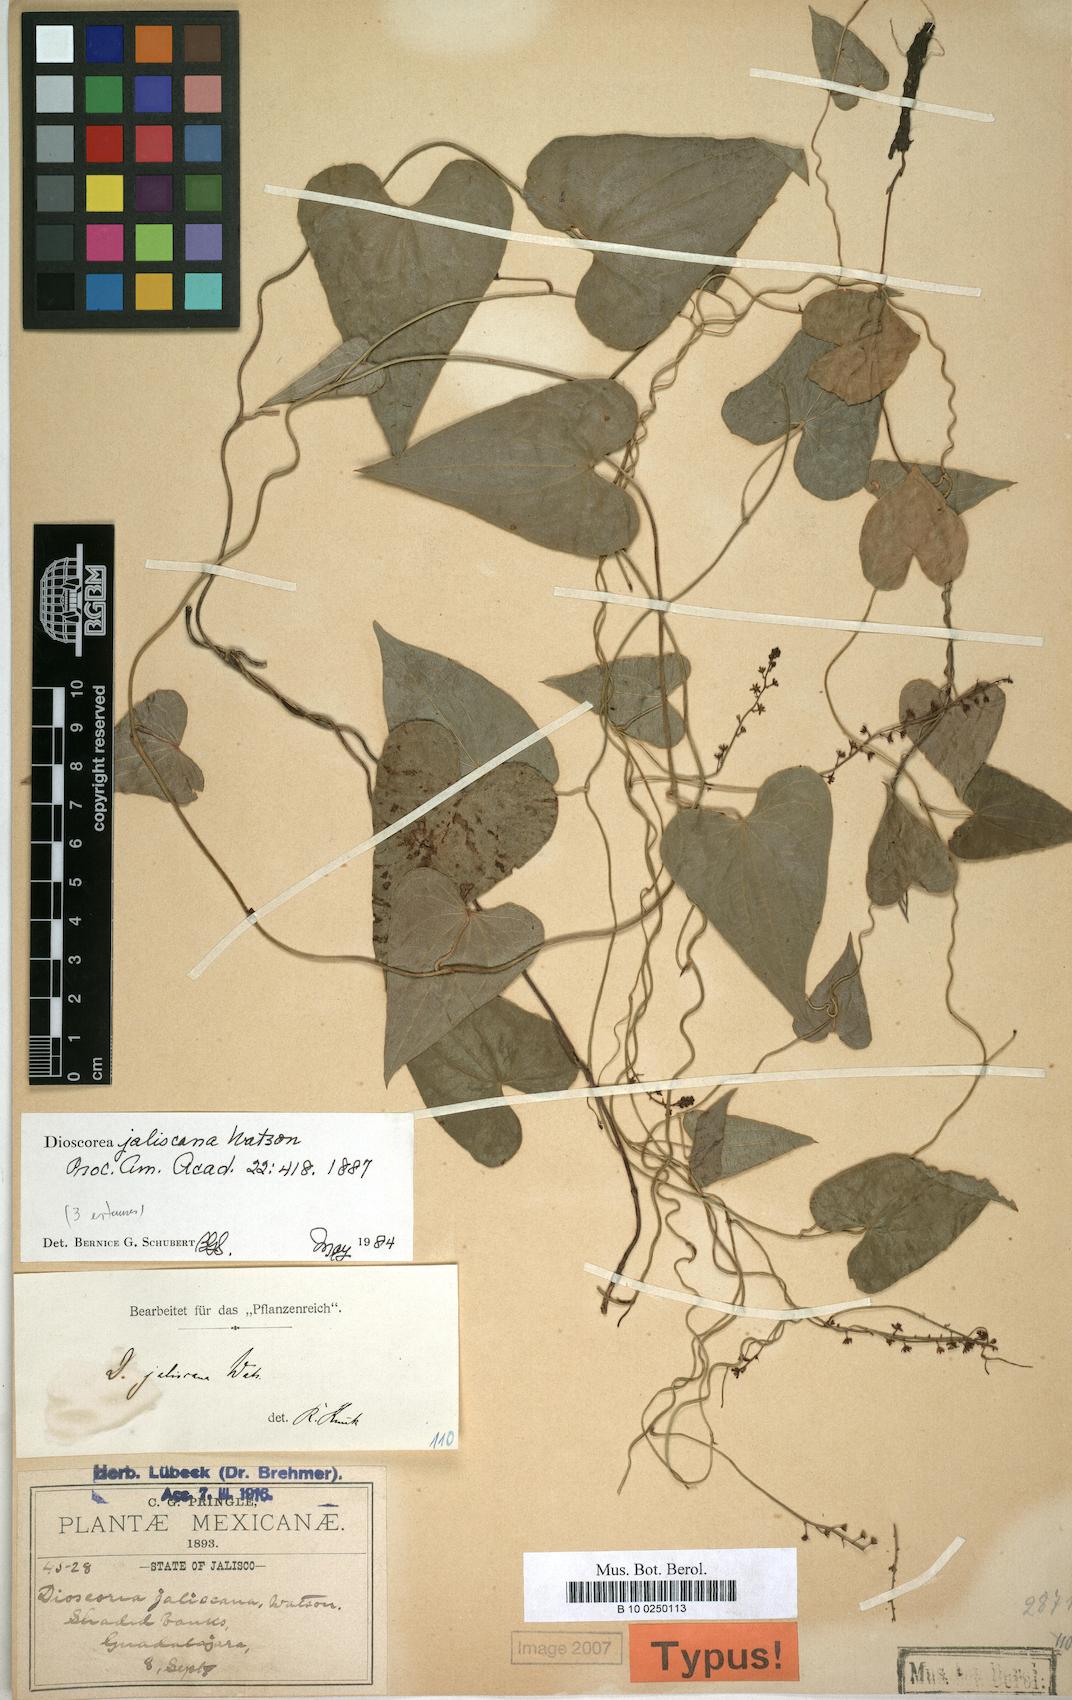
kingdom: Plantae
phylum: Tracheophyta
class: Liliopsida
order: Dioscoreales
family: Dioscoreaceae
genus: Dioscorea
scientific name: Dioscorea jaliscana
